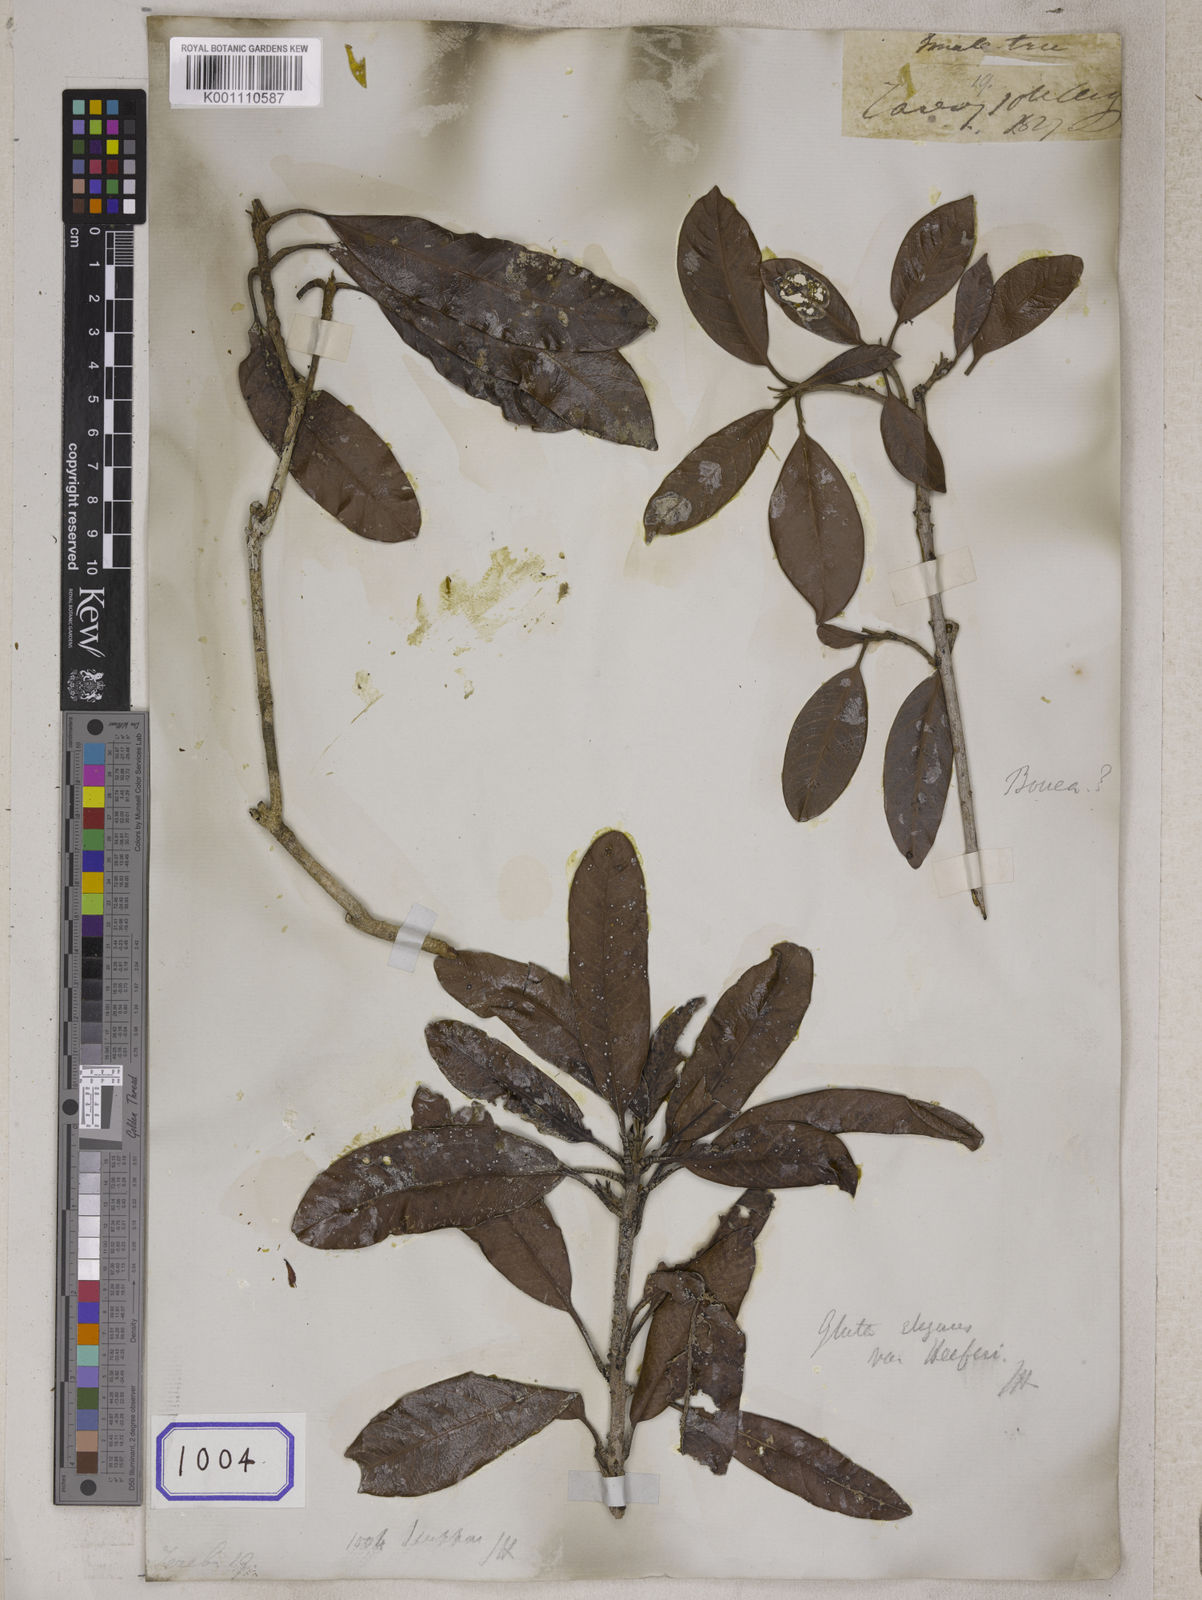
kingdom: Plantae
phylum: Tracheophyta
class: Magnoliopsida
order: Sapindales
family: Anacardiaceae
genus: Gluta
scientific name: Gluta tavoyana
